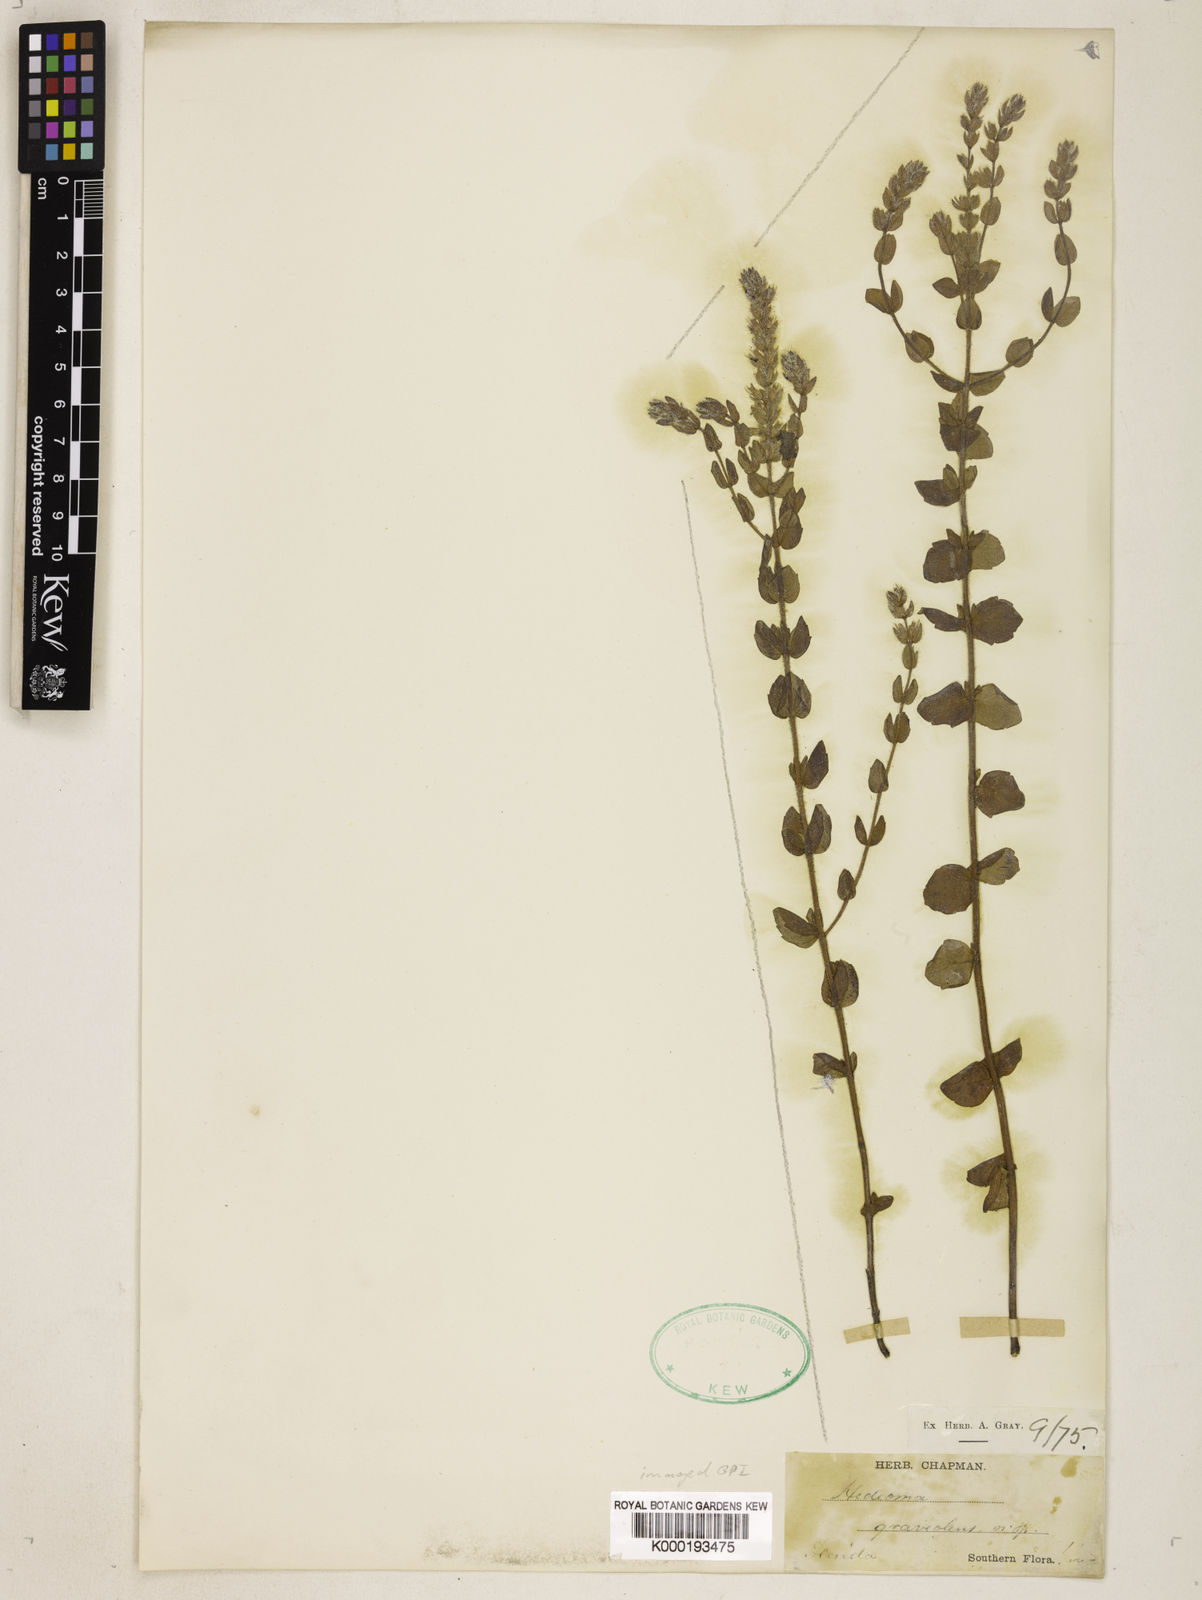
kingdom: Plantae
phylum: Tracheophyta
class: Magnoliopsida
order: Lamiales
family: Lamiaceae
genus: Stachydeoma
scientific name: Stachydeoma graveolens
